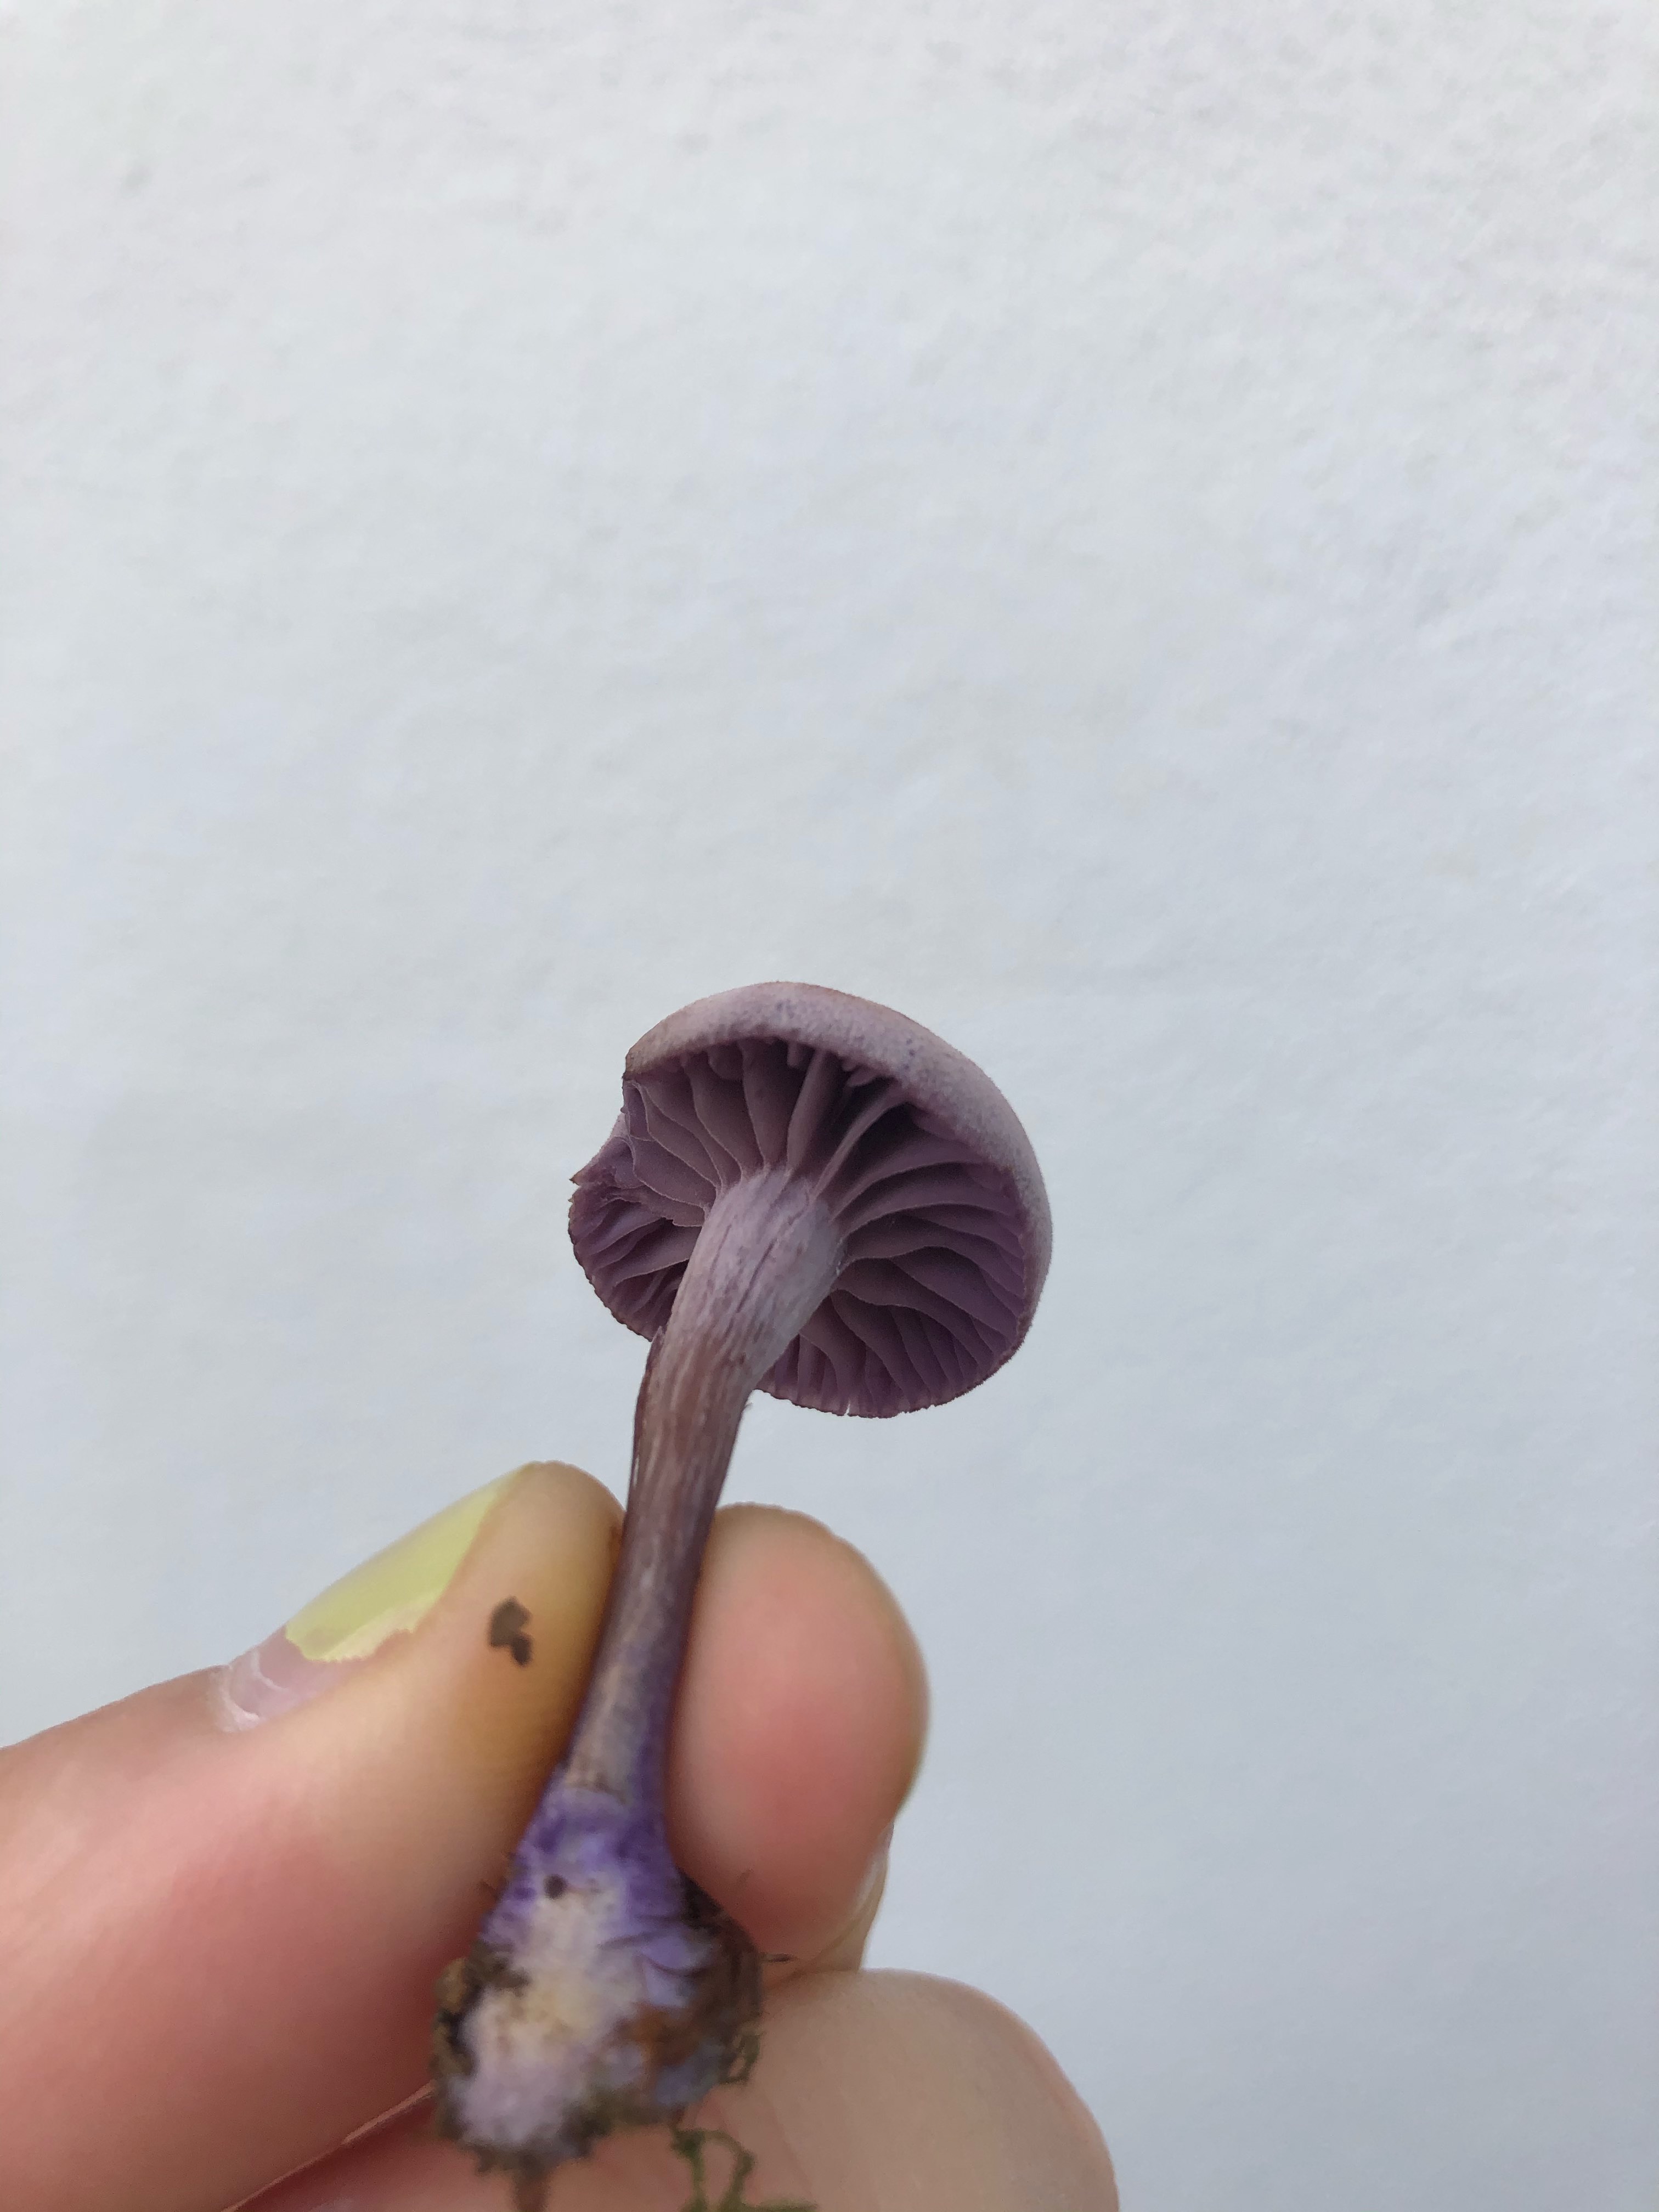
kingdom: Fungi
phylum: Basidiomycota
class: Agaricomycetes
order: Agaricales
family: Hydnangiaceae
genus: Laccaria
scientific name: Laccaria amethystina
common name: violet ametysthat
